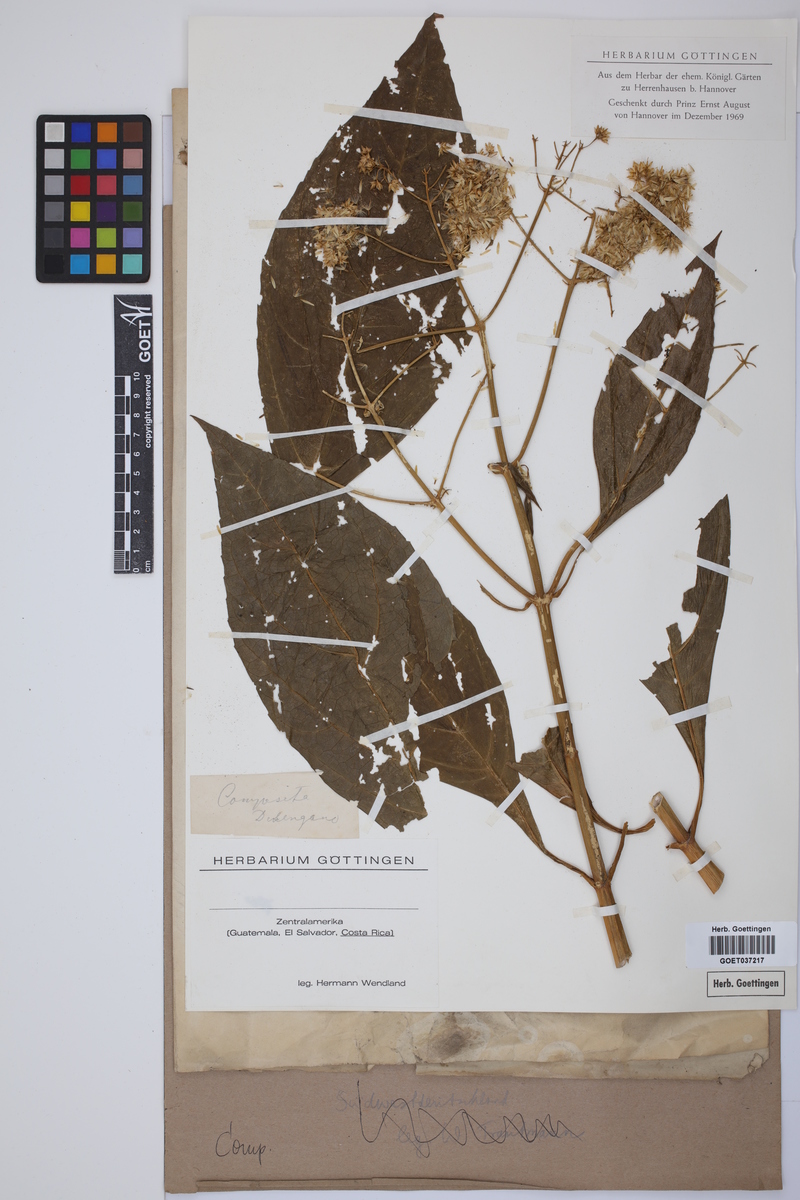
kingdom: Plantae
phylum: Tracheophyta
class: Magnoliopsida
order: Asterales
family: Asteraceae
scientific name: Asteraceae
